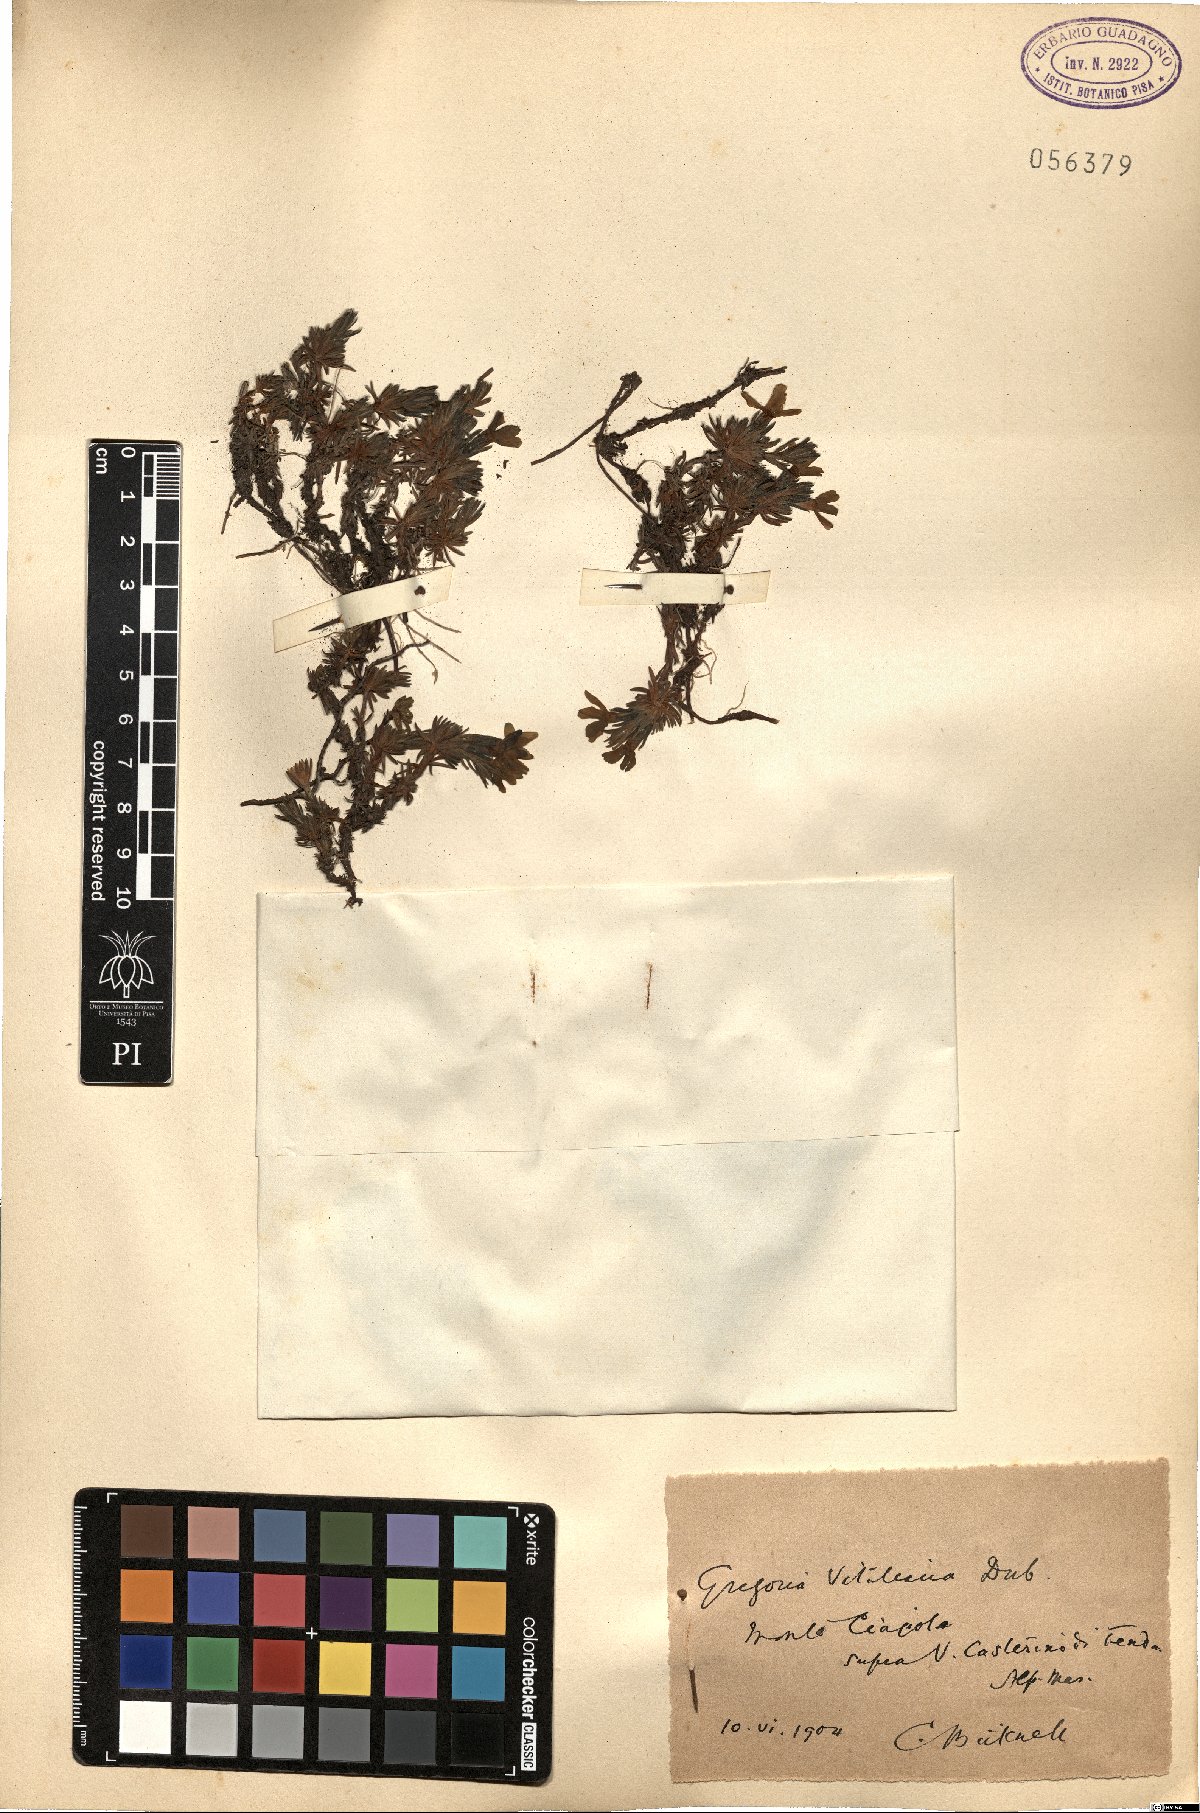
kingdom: Plantae
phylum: Tracheophyta
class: Magnoliopsida
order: Ericales
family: Primulaceae
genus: Androsace
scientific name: Androsace vitaliana
